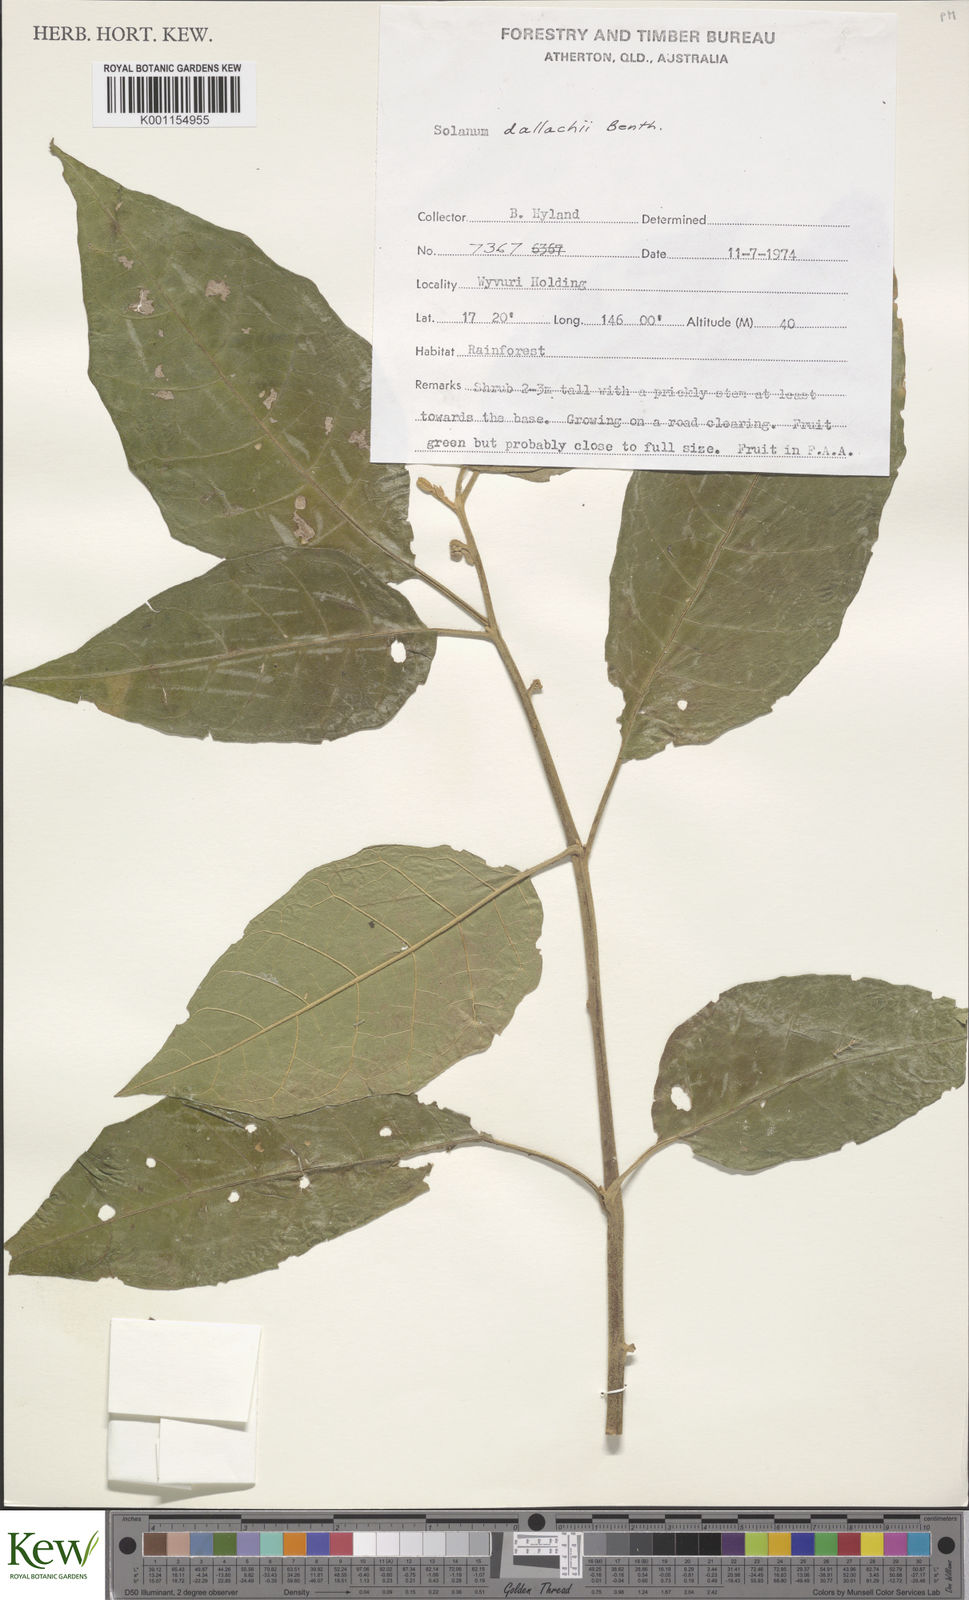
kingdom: Plantae
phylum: Tracheophyta
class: Magnoliopsida
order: Solanales
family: Solanaceae
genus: Solanum
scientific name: Solanum magnifolium
